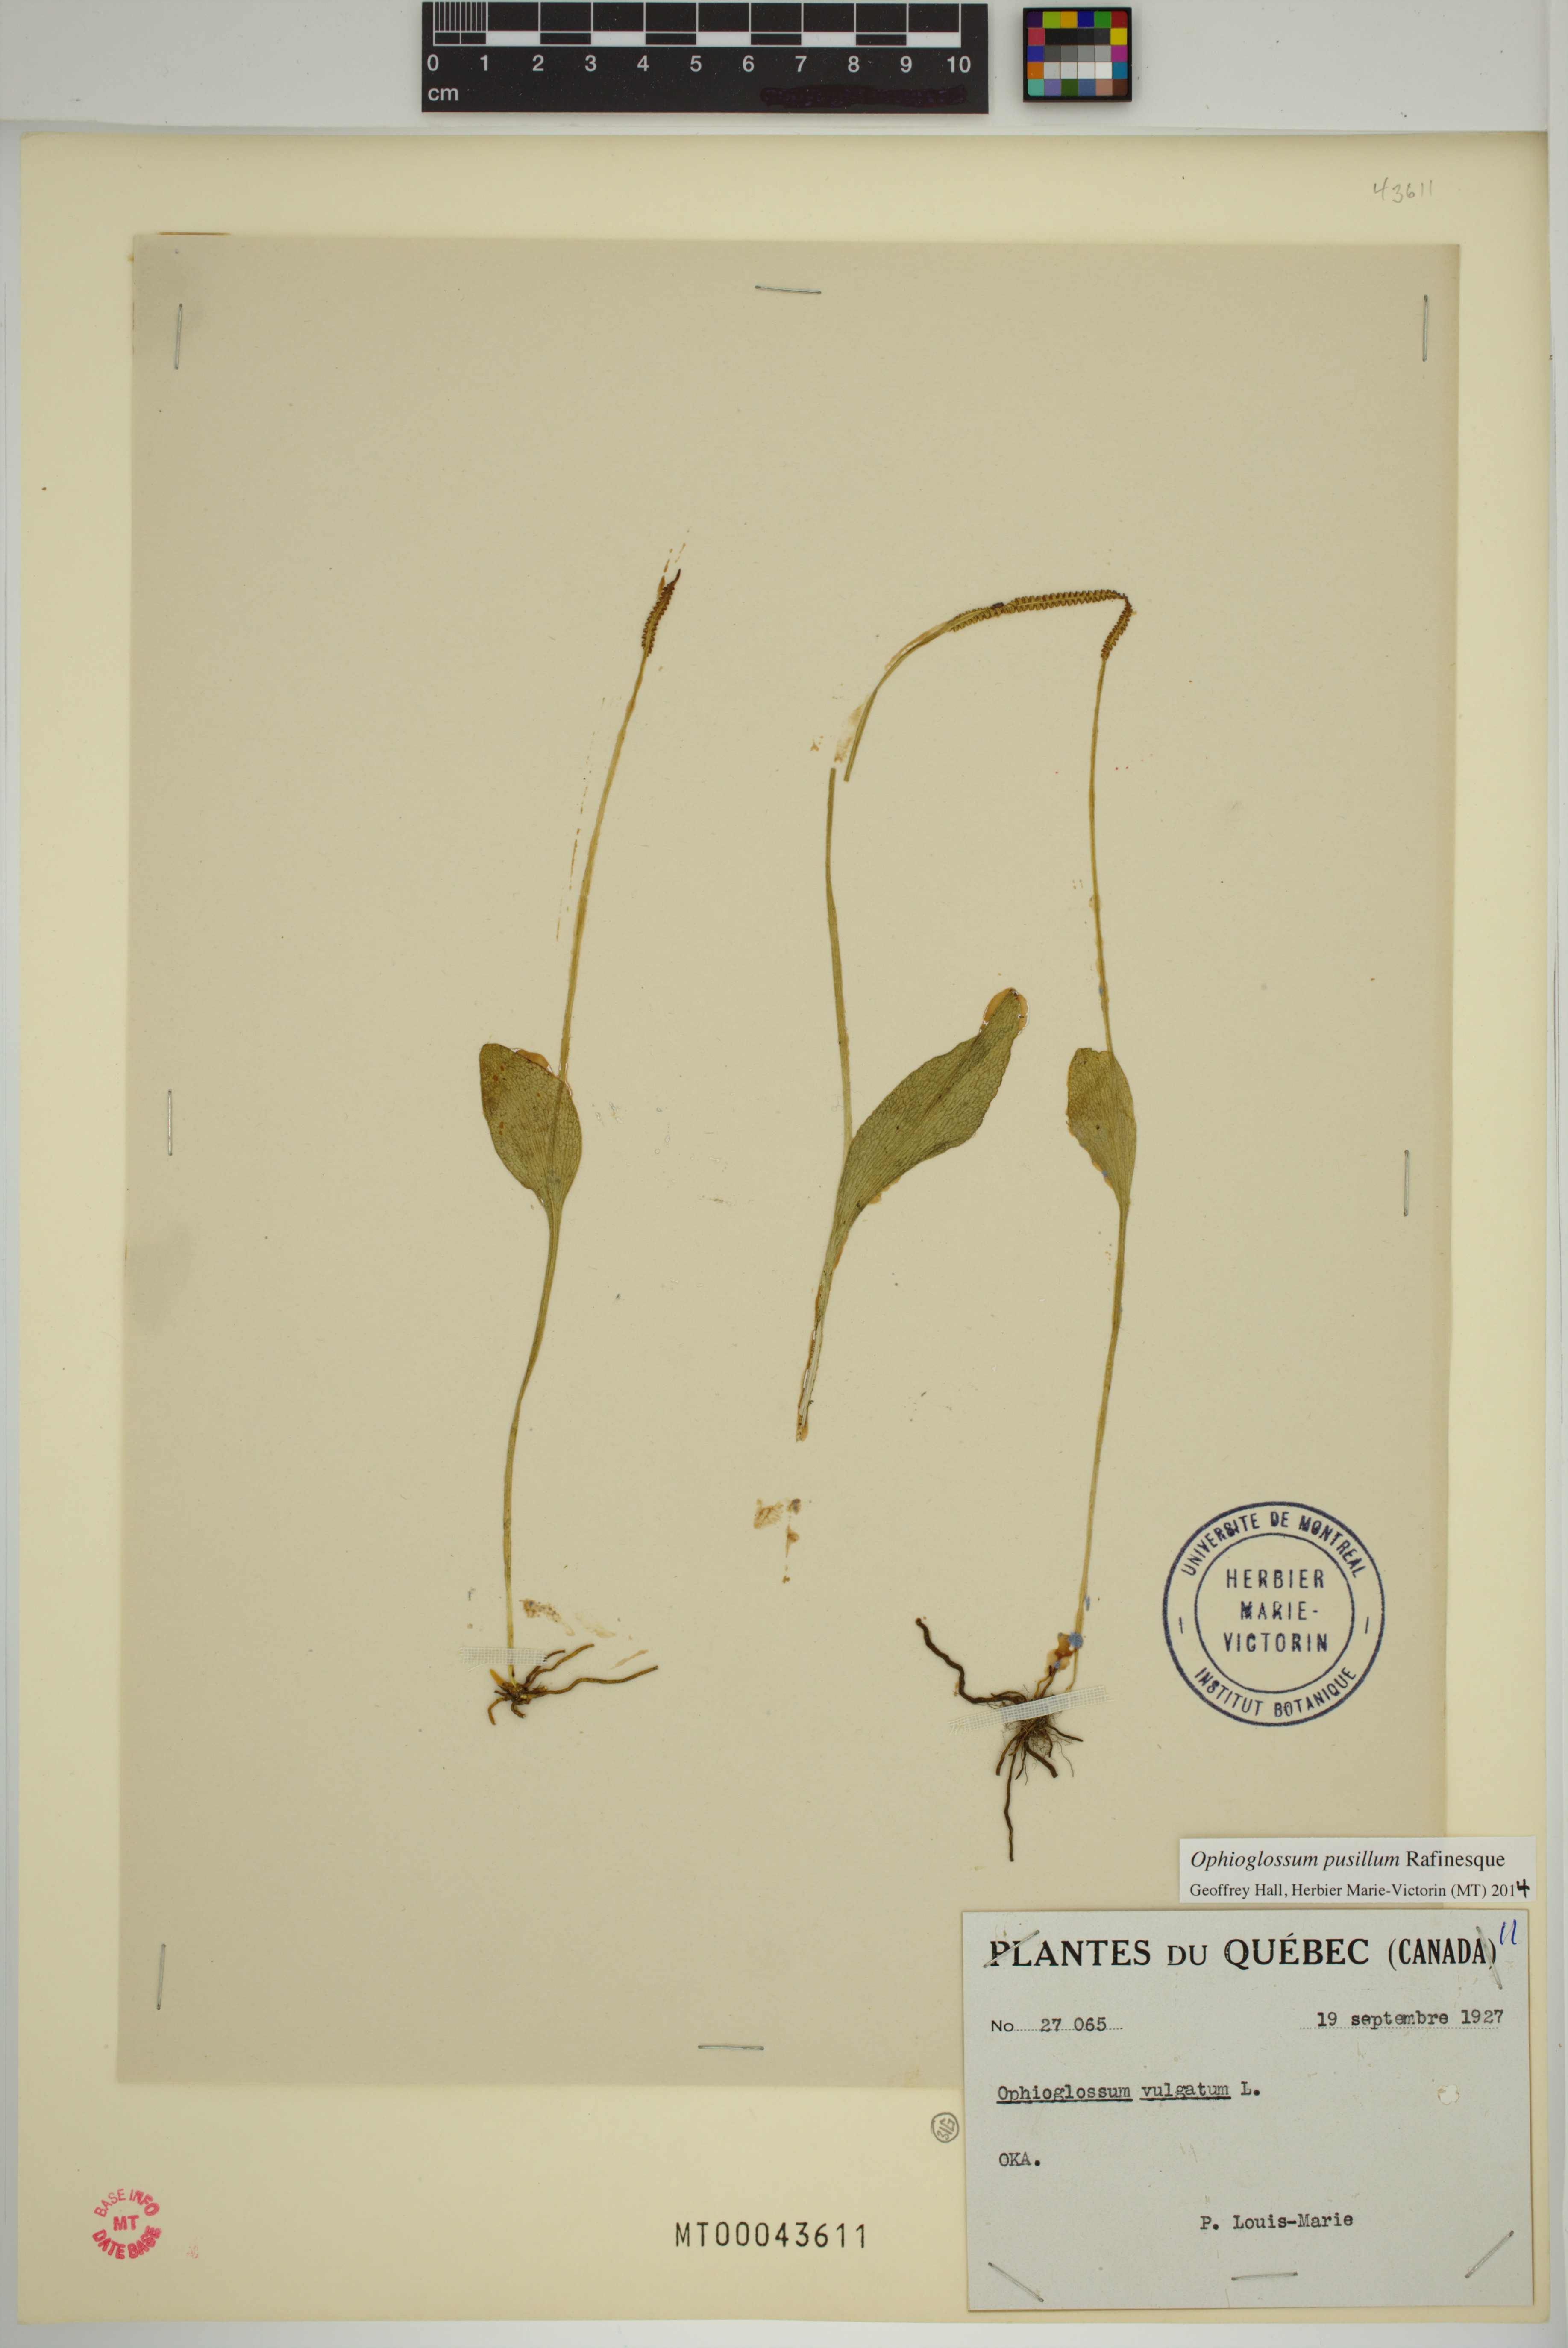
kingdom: Plantae
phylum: Tracheophyta
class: Polypodiopsida
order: Ophioglossales
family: Ophioglossaceae
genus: Ophioglossum
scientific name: Ophioglossum pusillum
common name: Northern adder's-tongue
